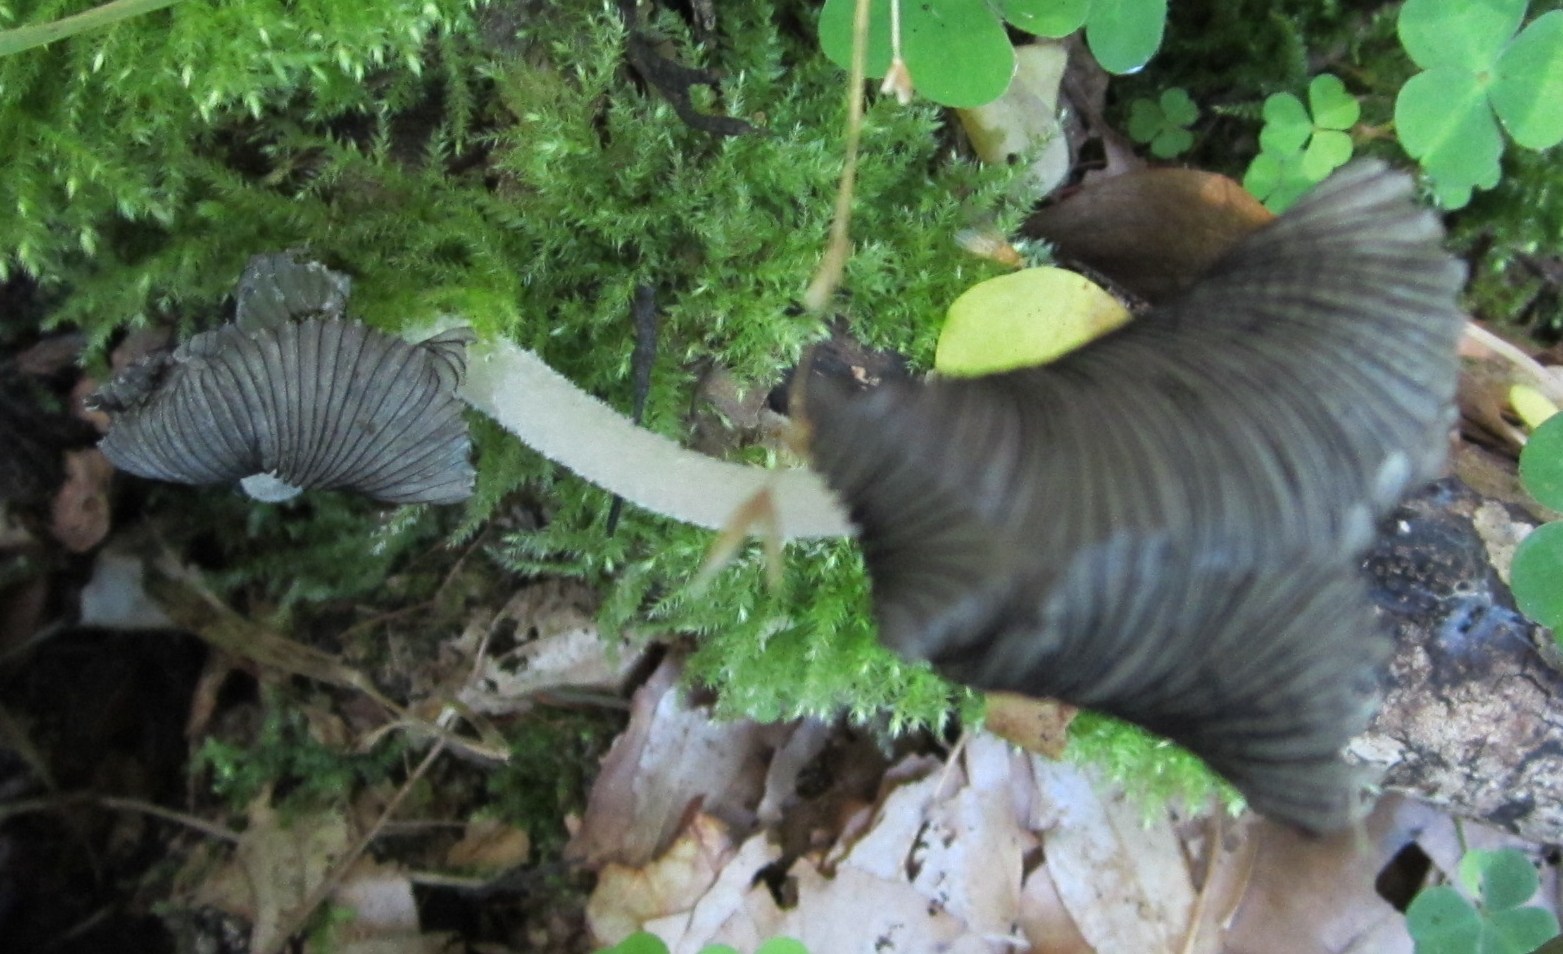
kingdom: Fungi
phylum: Basidiomycota
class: Agaricomycetes
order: Agaricales
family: Psathyrellaceae
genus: Coprinopsis
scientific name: Coprinopsis lagopus
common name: dunstokket blækhat
